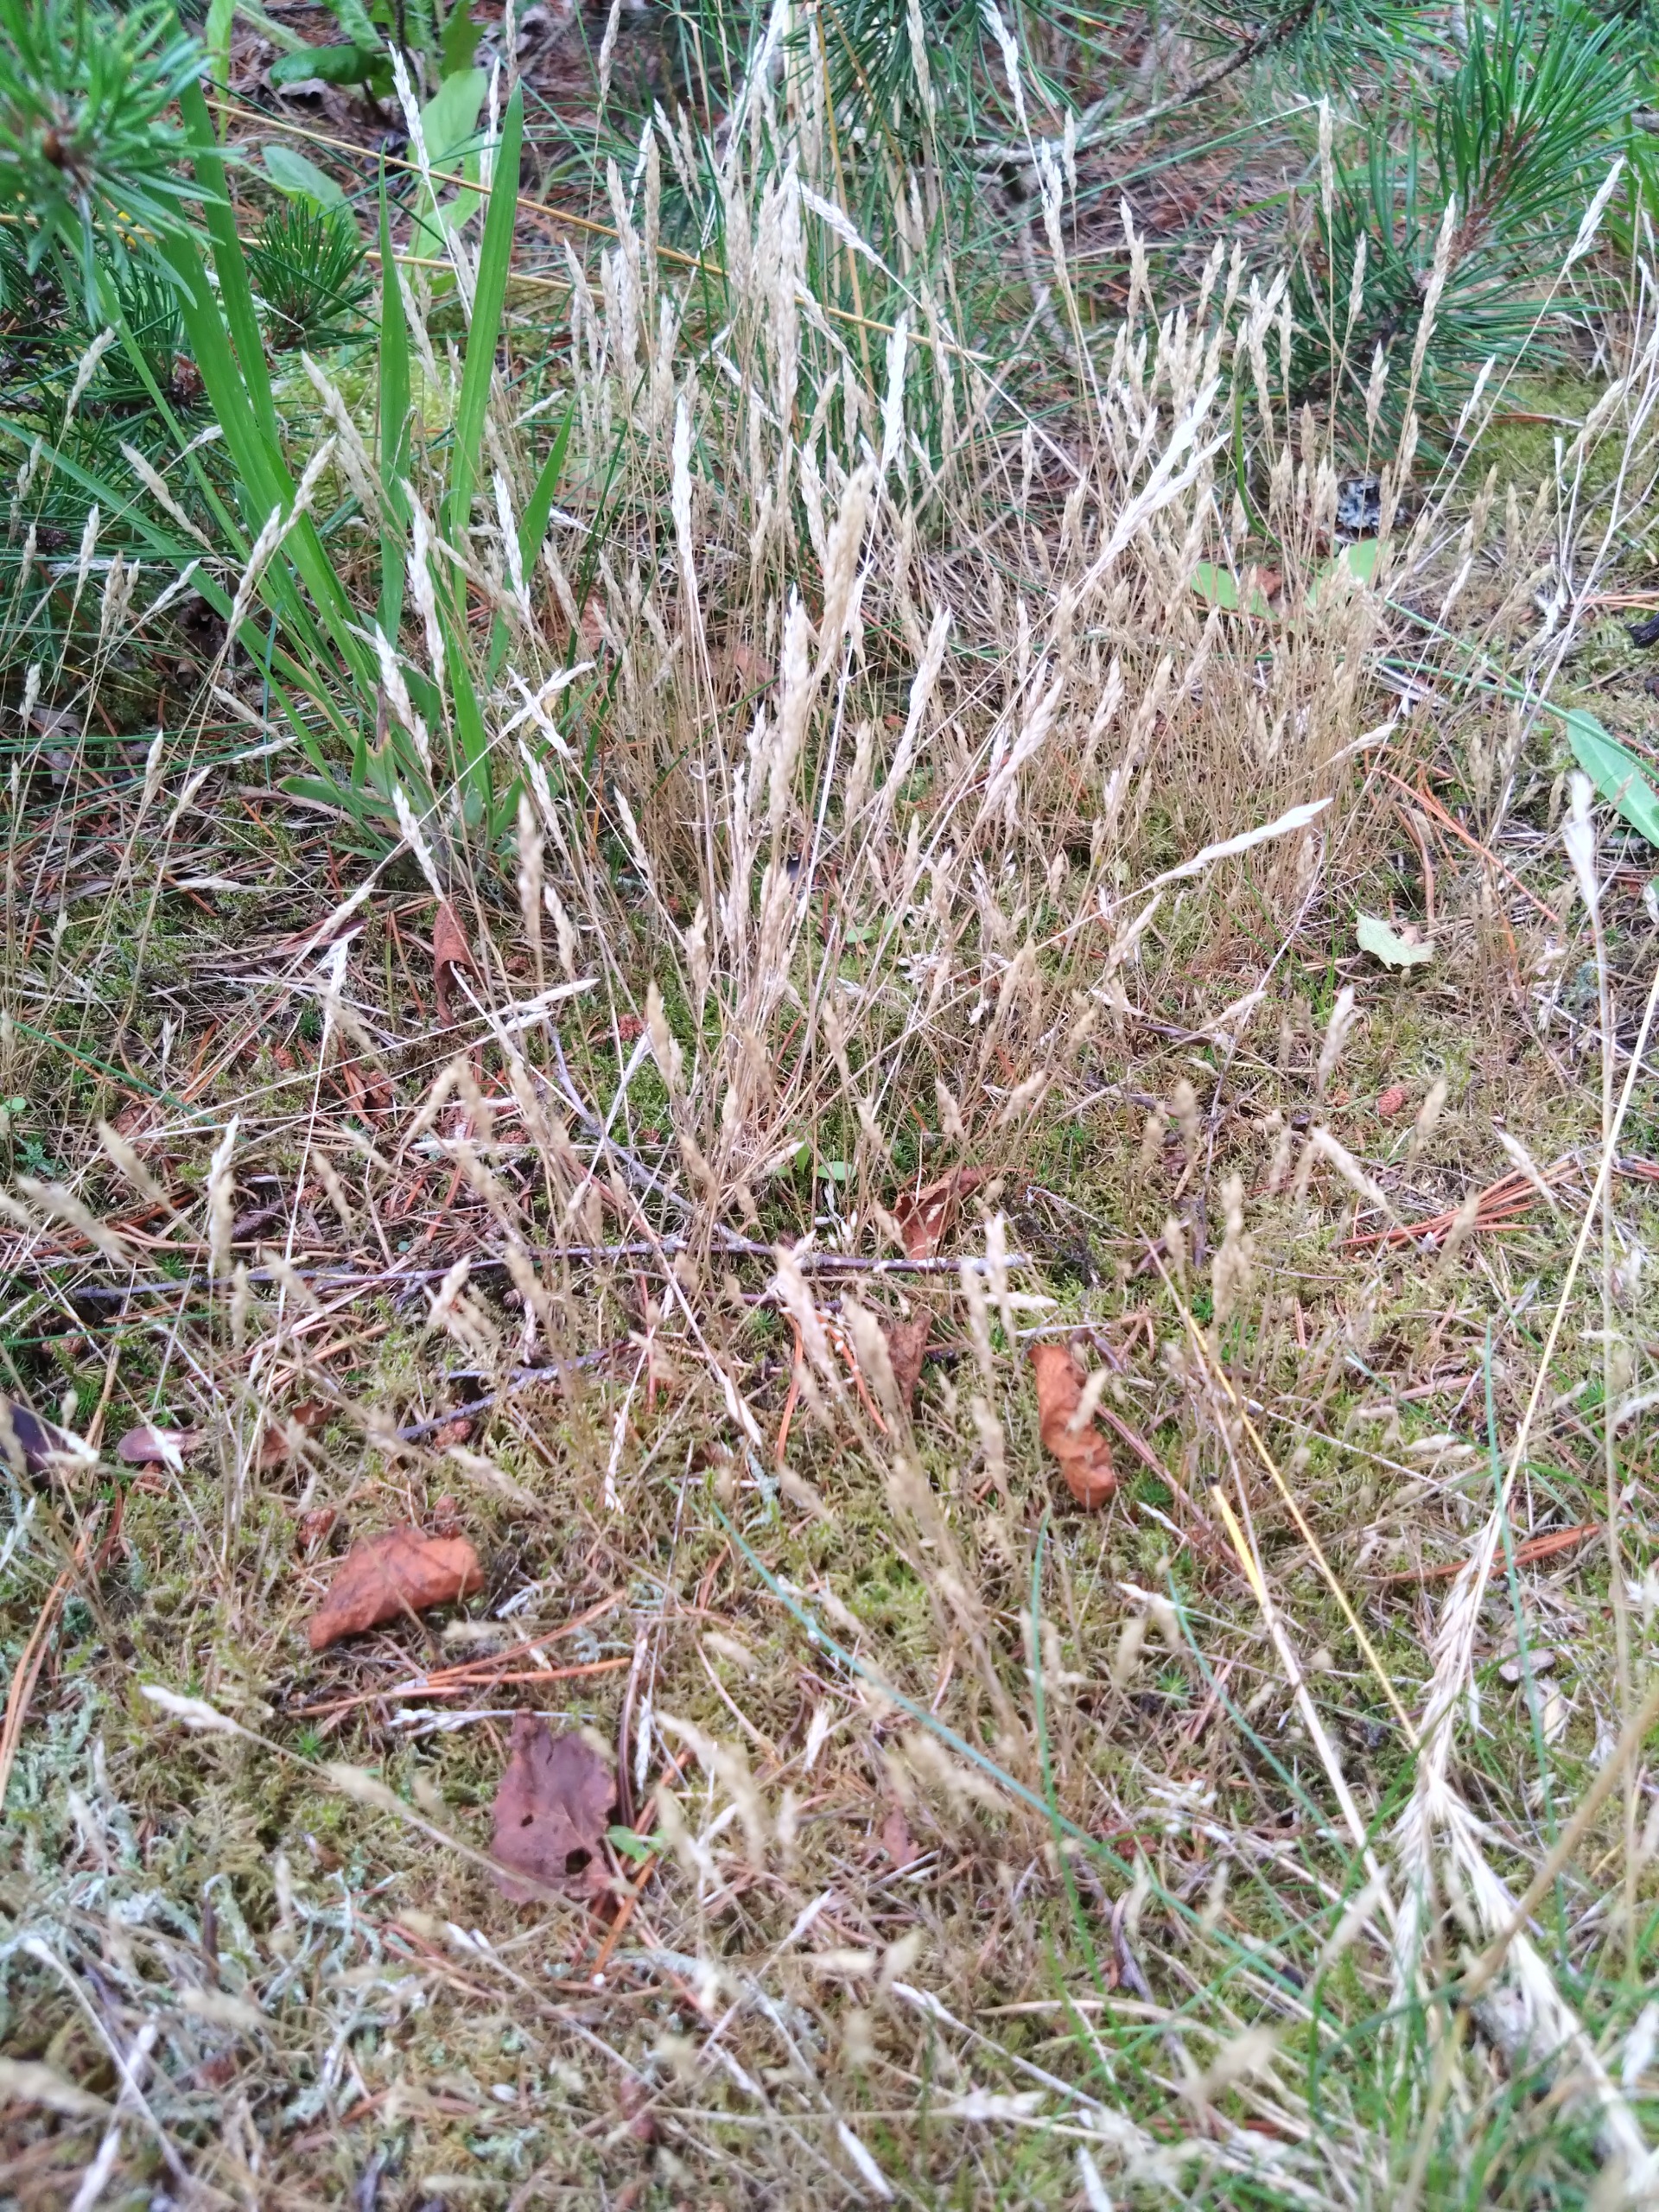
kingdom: Plantae
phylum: Tracheophyta
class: Liliopsida
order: Poales
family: Poaceae
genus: Aira
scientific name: Aira praecox
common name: Tidlig dværgbunke
